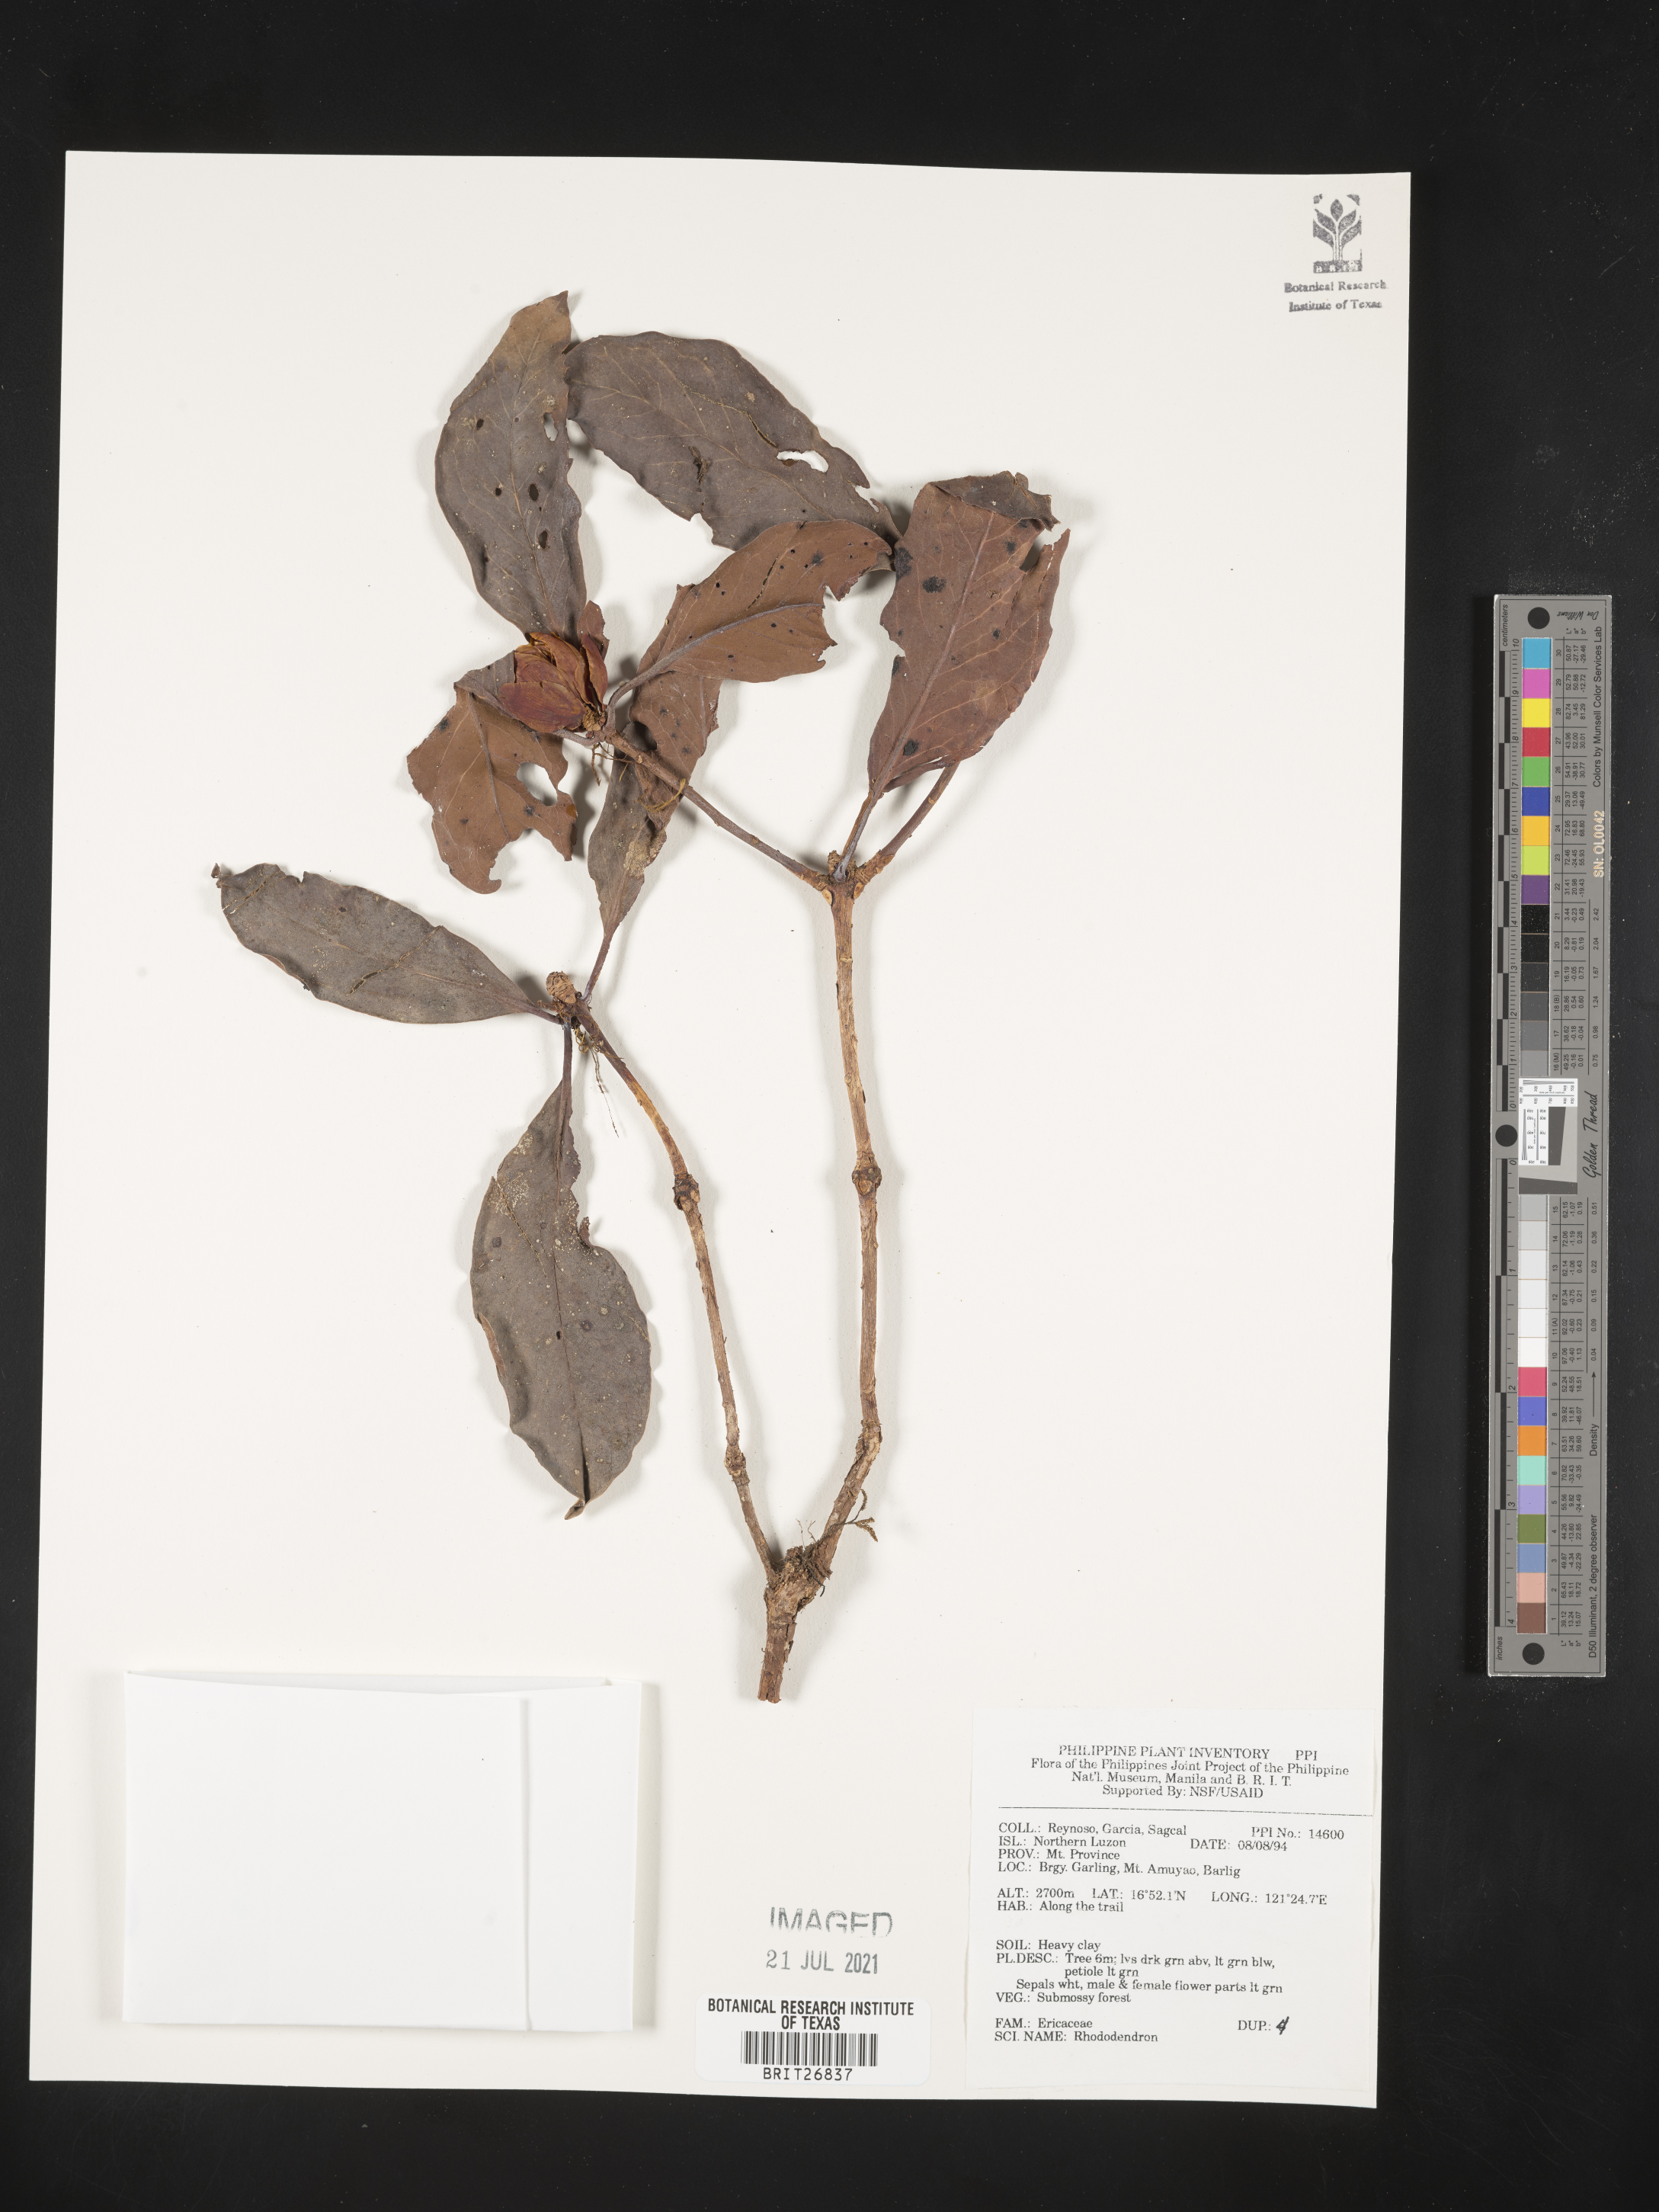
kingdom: Plantae
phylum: Tracheophyta
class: Magnoliopsida
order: Ericales
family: Ericaceae
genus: Rhododendron
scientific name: Rhododendron
